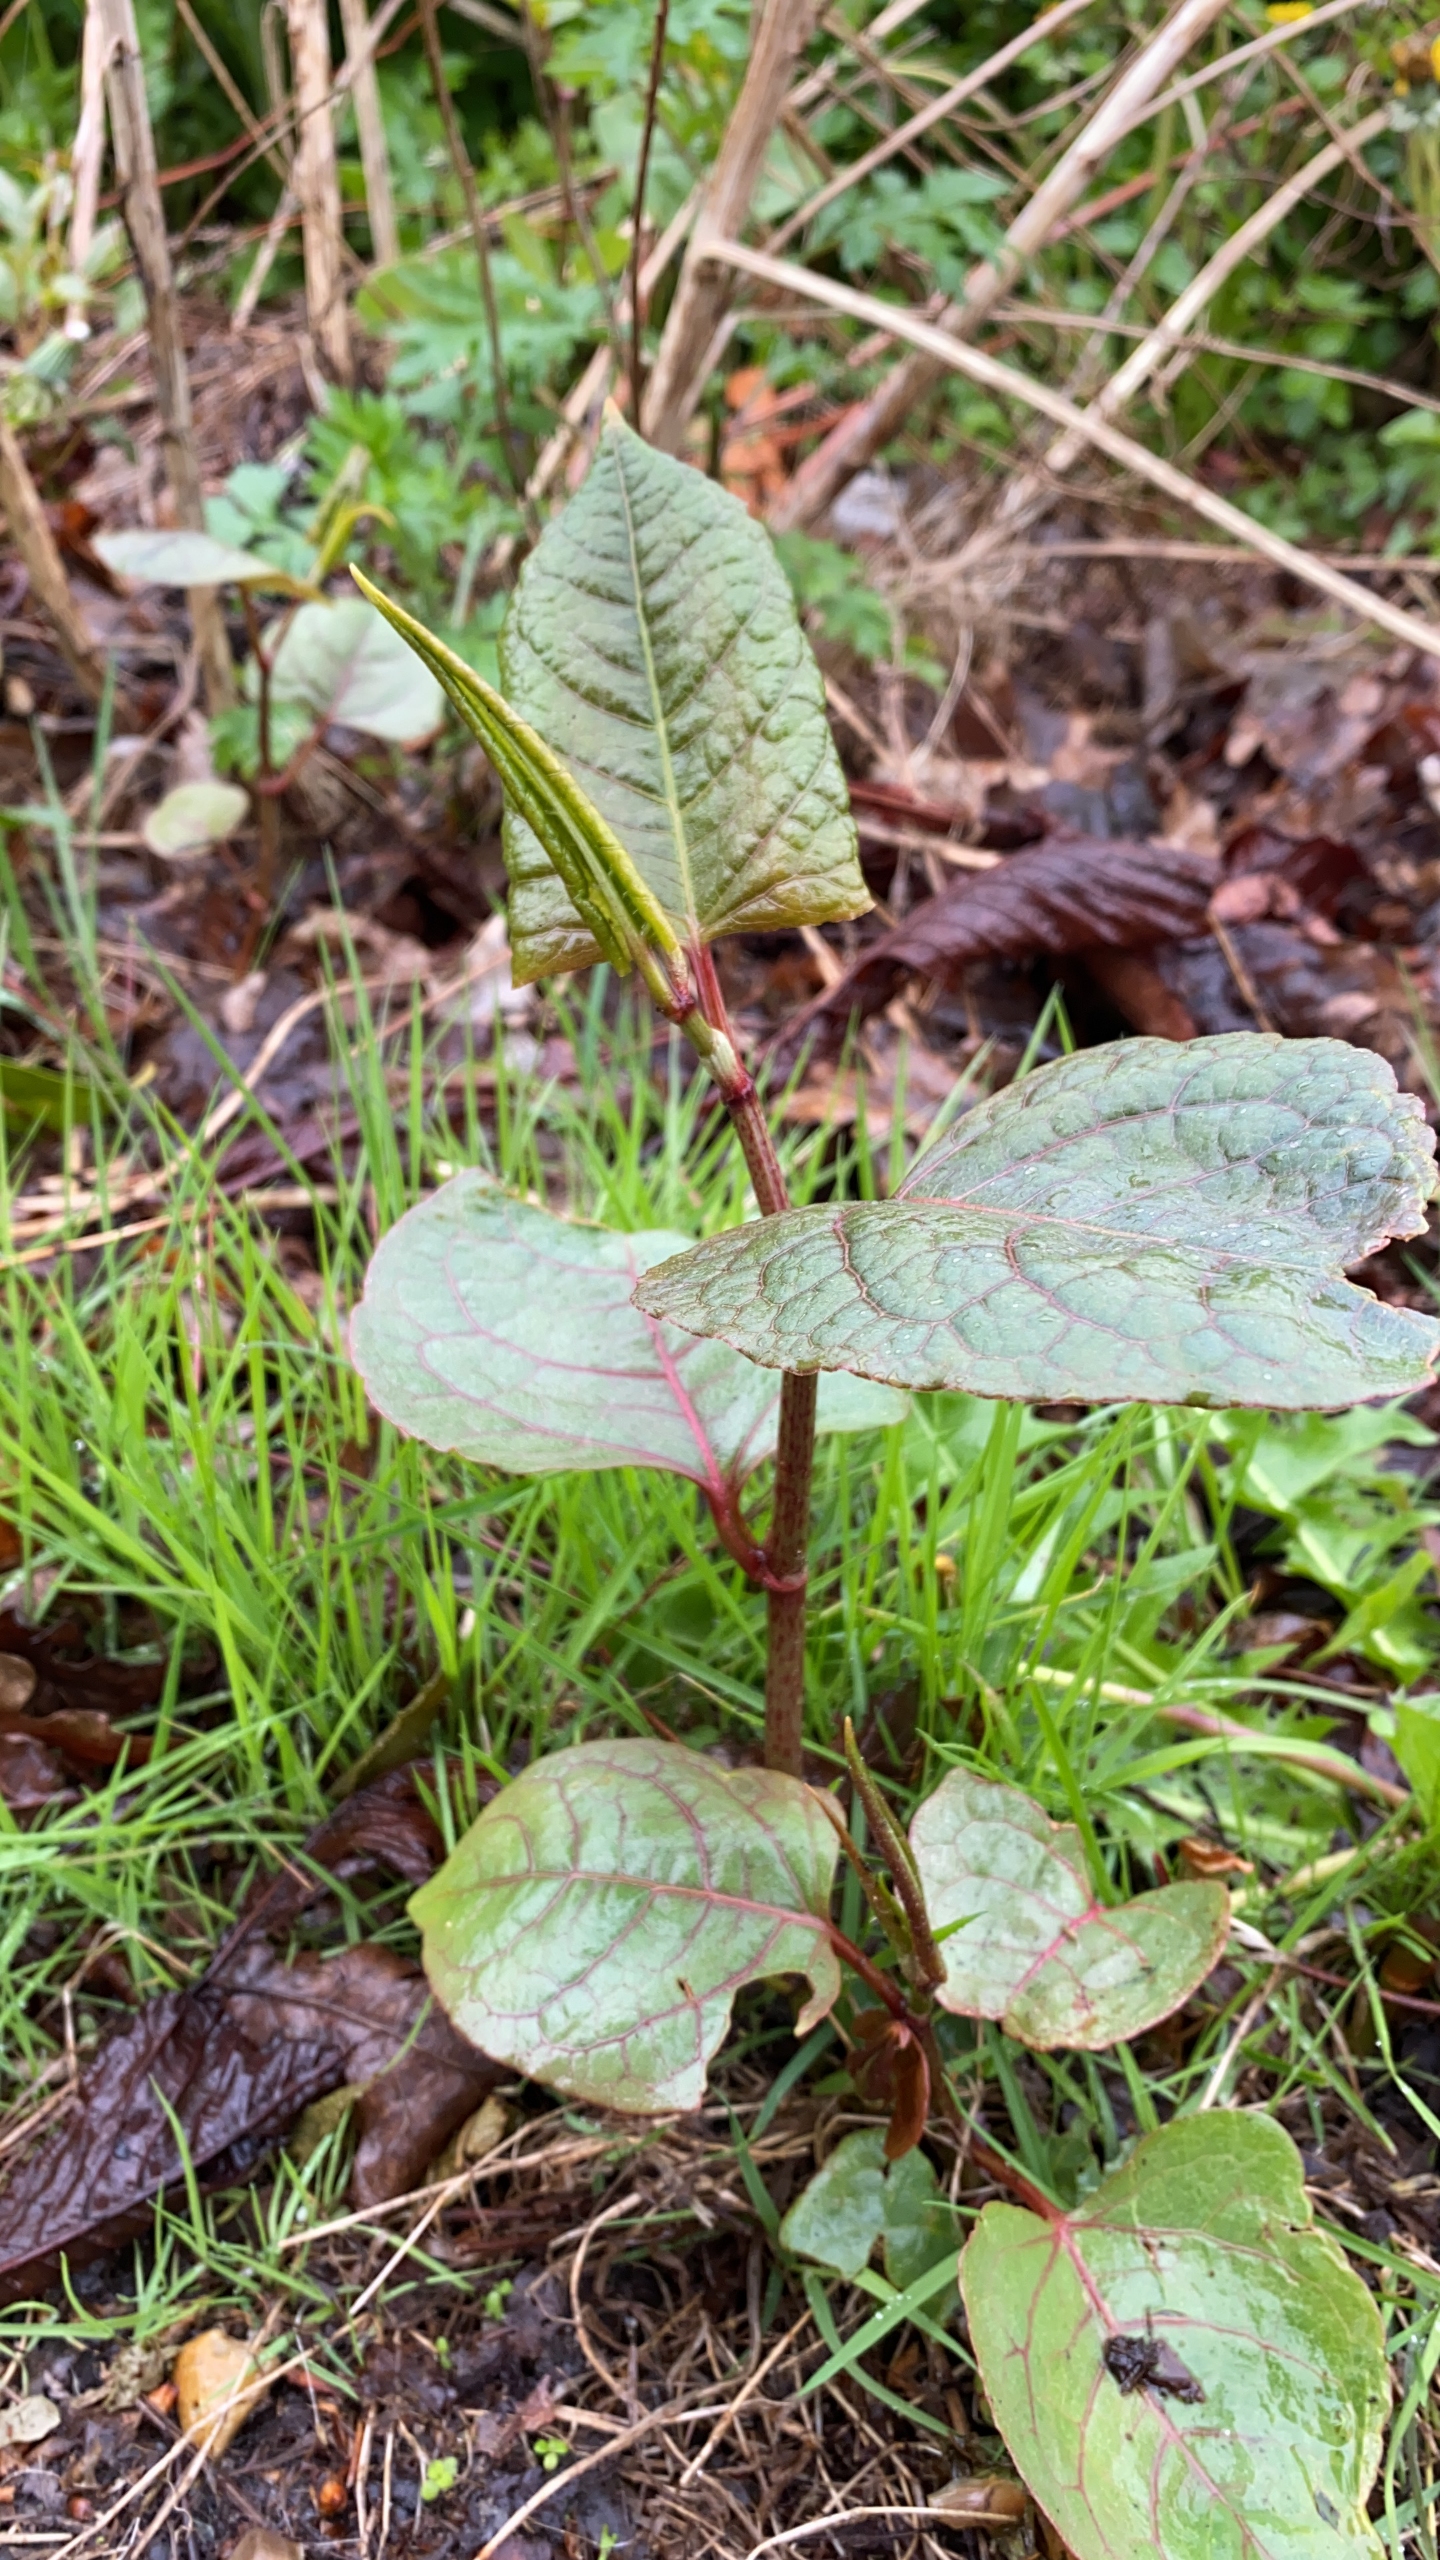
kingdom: Plantae
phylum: Tracheophyta
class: Magnoliopsida
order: Caryophyllales
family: Polygonaceae
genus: Reynoutria
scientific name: Reynoutria japonica
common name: Japan-pileurt
